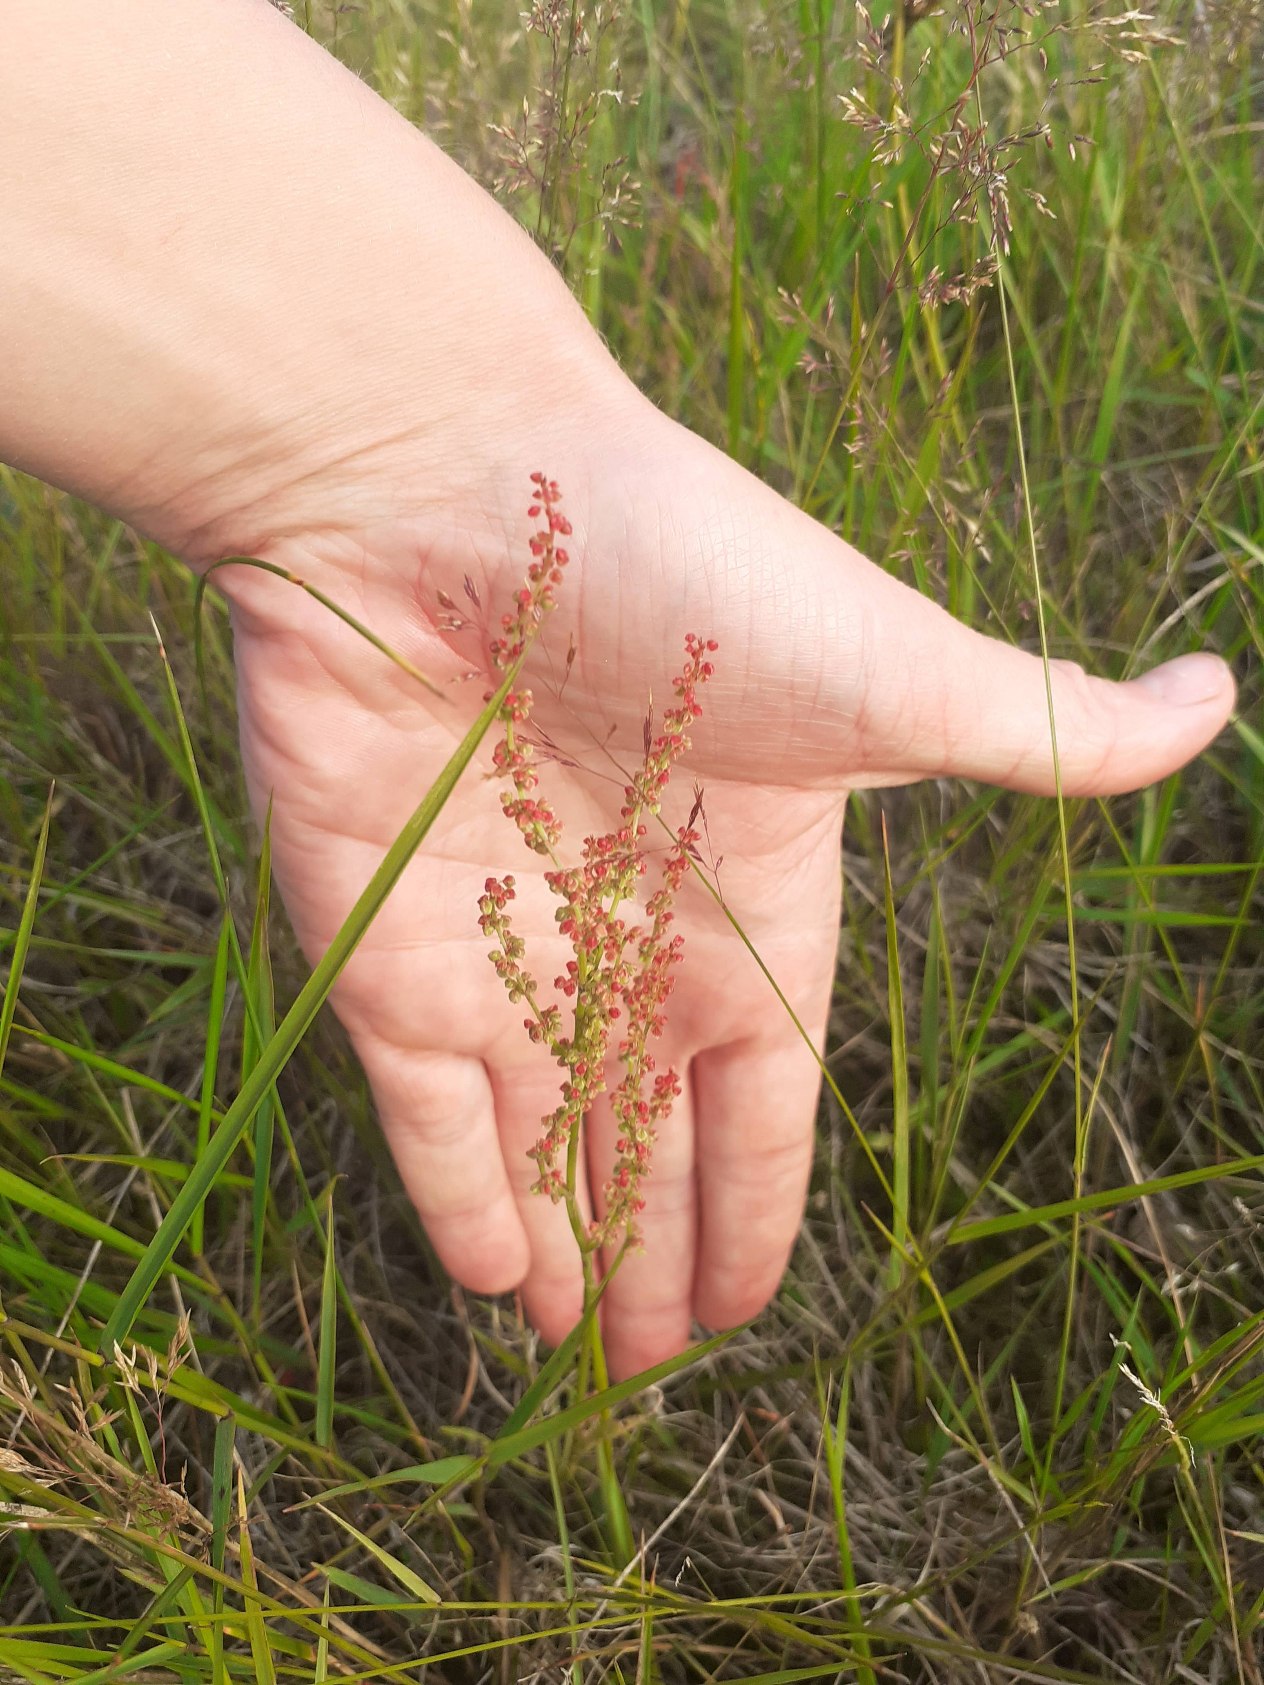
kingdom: Plantae
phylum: Tracheophyta
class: Magnoliopsida
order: Caryophyllales
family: Polygonaceae
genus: Rumex
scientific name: Rumex acetosella
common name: Rødknæ
